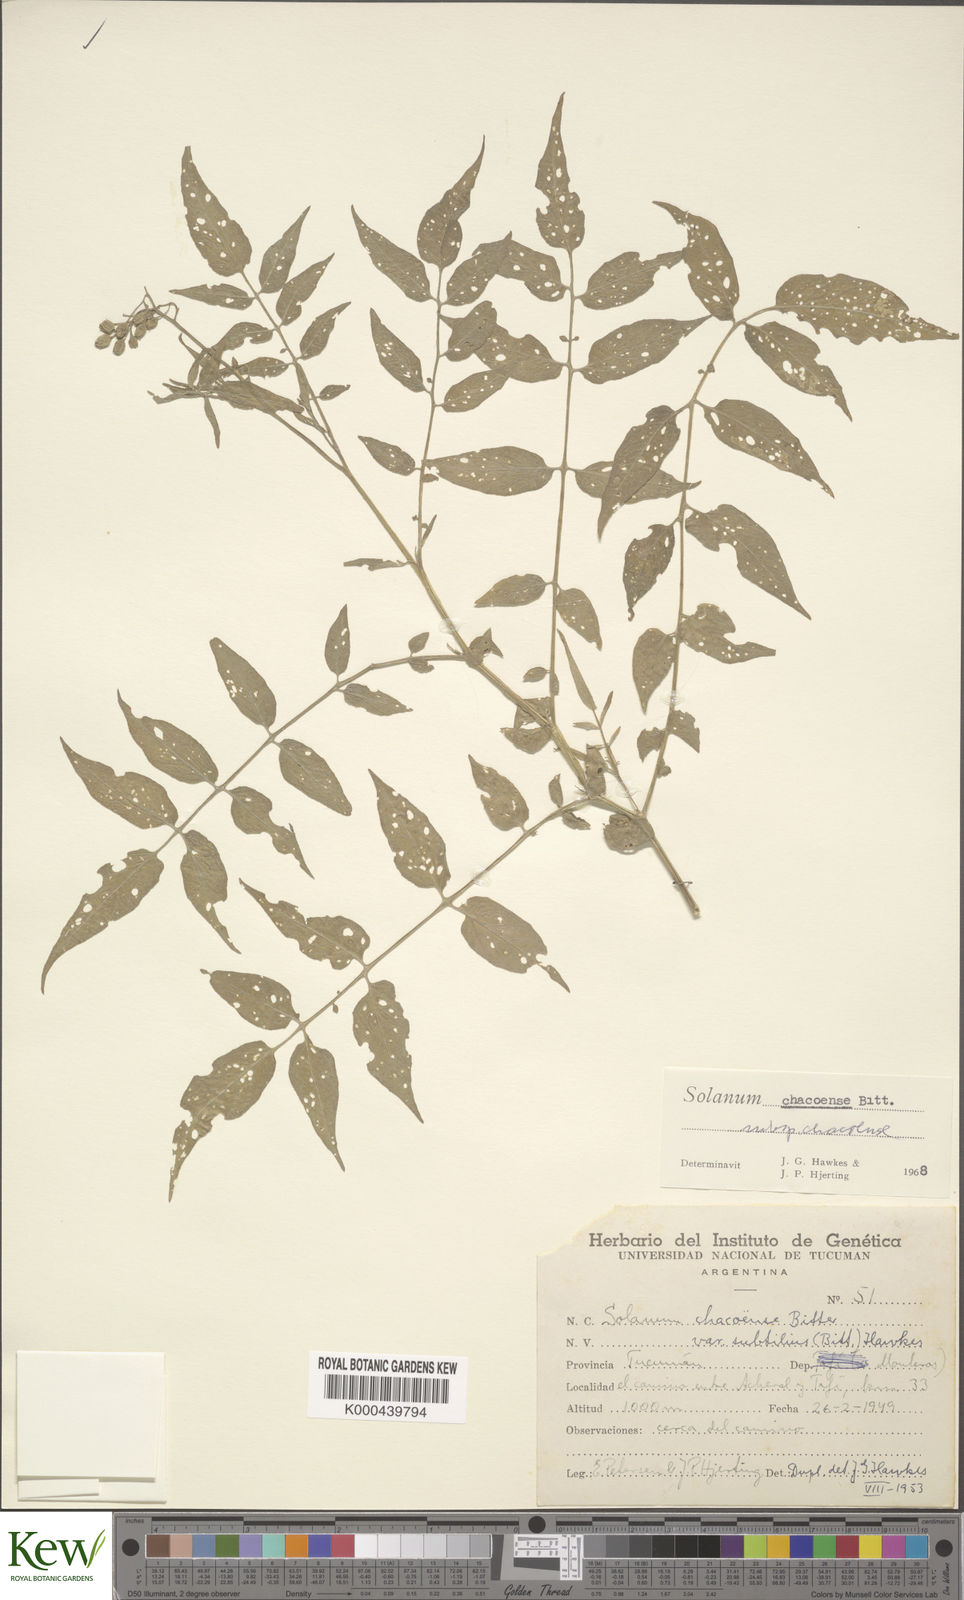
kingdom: Plantae
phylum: Tracheophyta
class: Magnoliopsida
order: Solanales
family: Solanaceae
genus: Solanum
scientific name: Solanum chacoense
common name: Chaco potato
